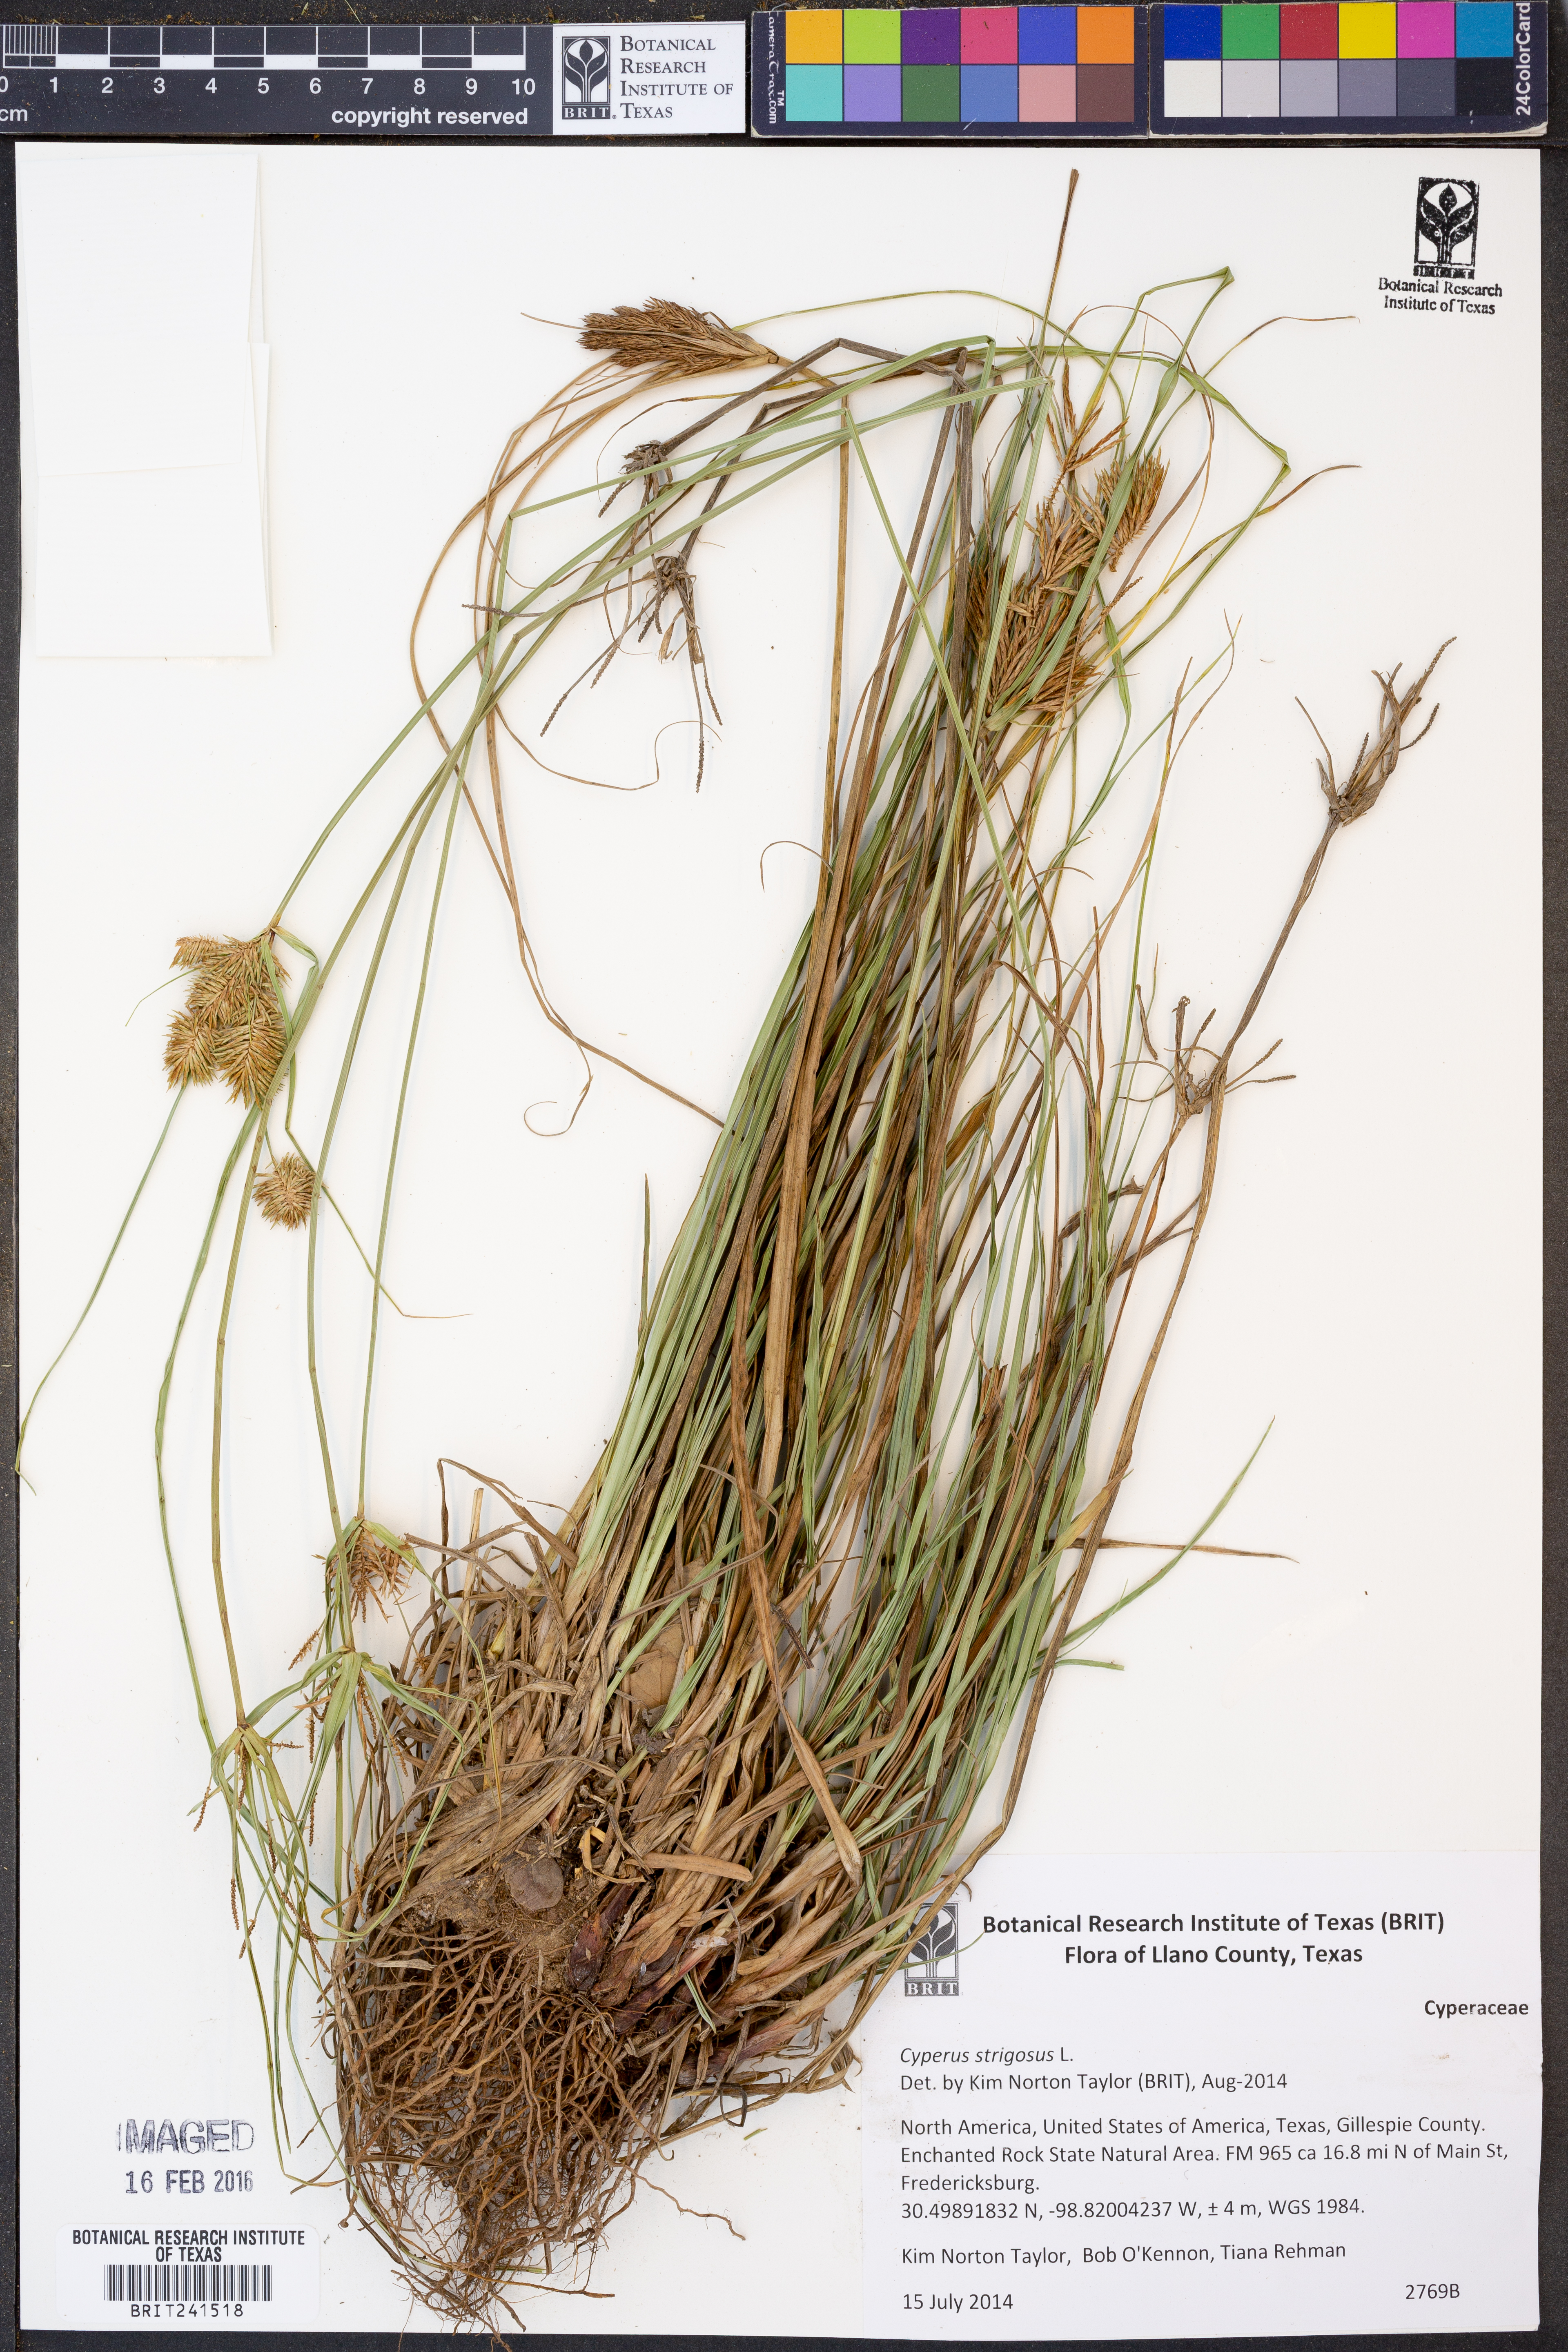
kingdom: Plantae
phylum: Tracheophyta
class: Liliopsida
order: Poales
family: Cyperaceae
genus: Cyperus
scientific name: Cyperus strigosus
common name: False nutsedge
